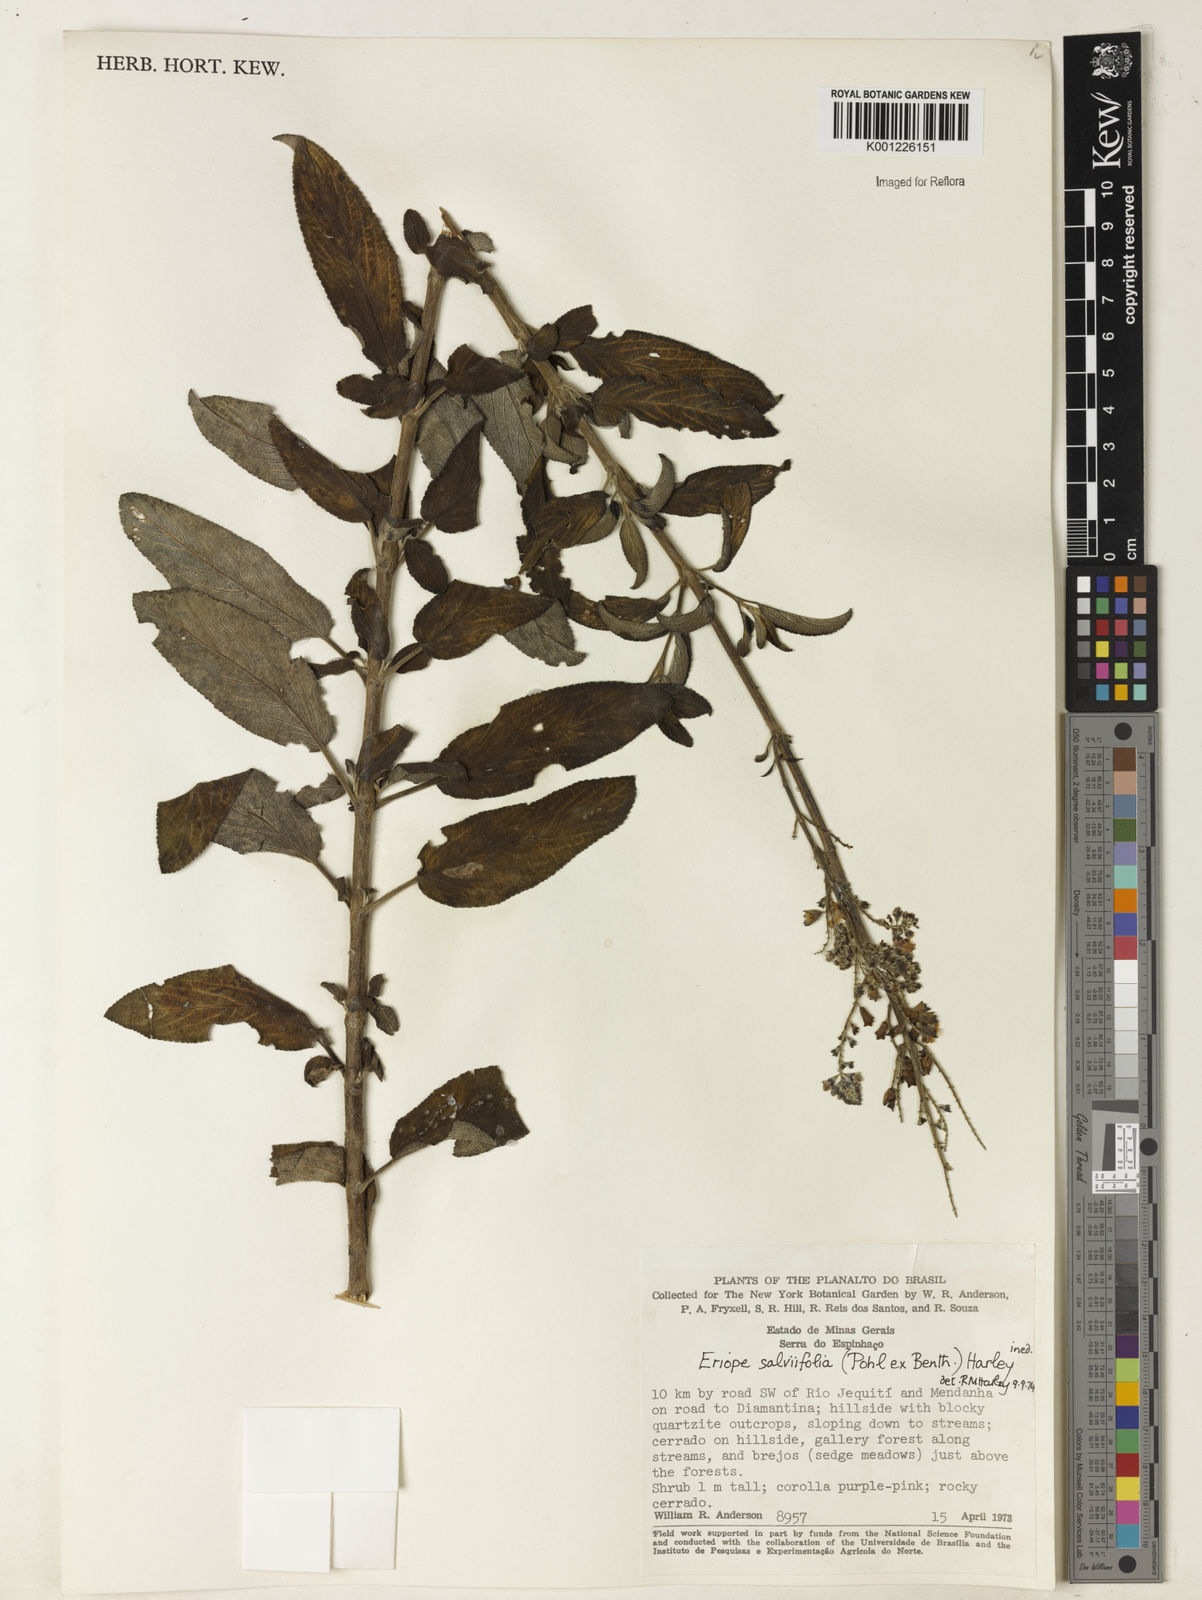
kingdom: Plantae
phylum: Tracheophyta
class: Magnoliopsida
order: Lamiales
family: Lamiaceae
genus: Eriope
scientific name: Eriope salviifolia
